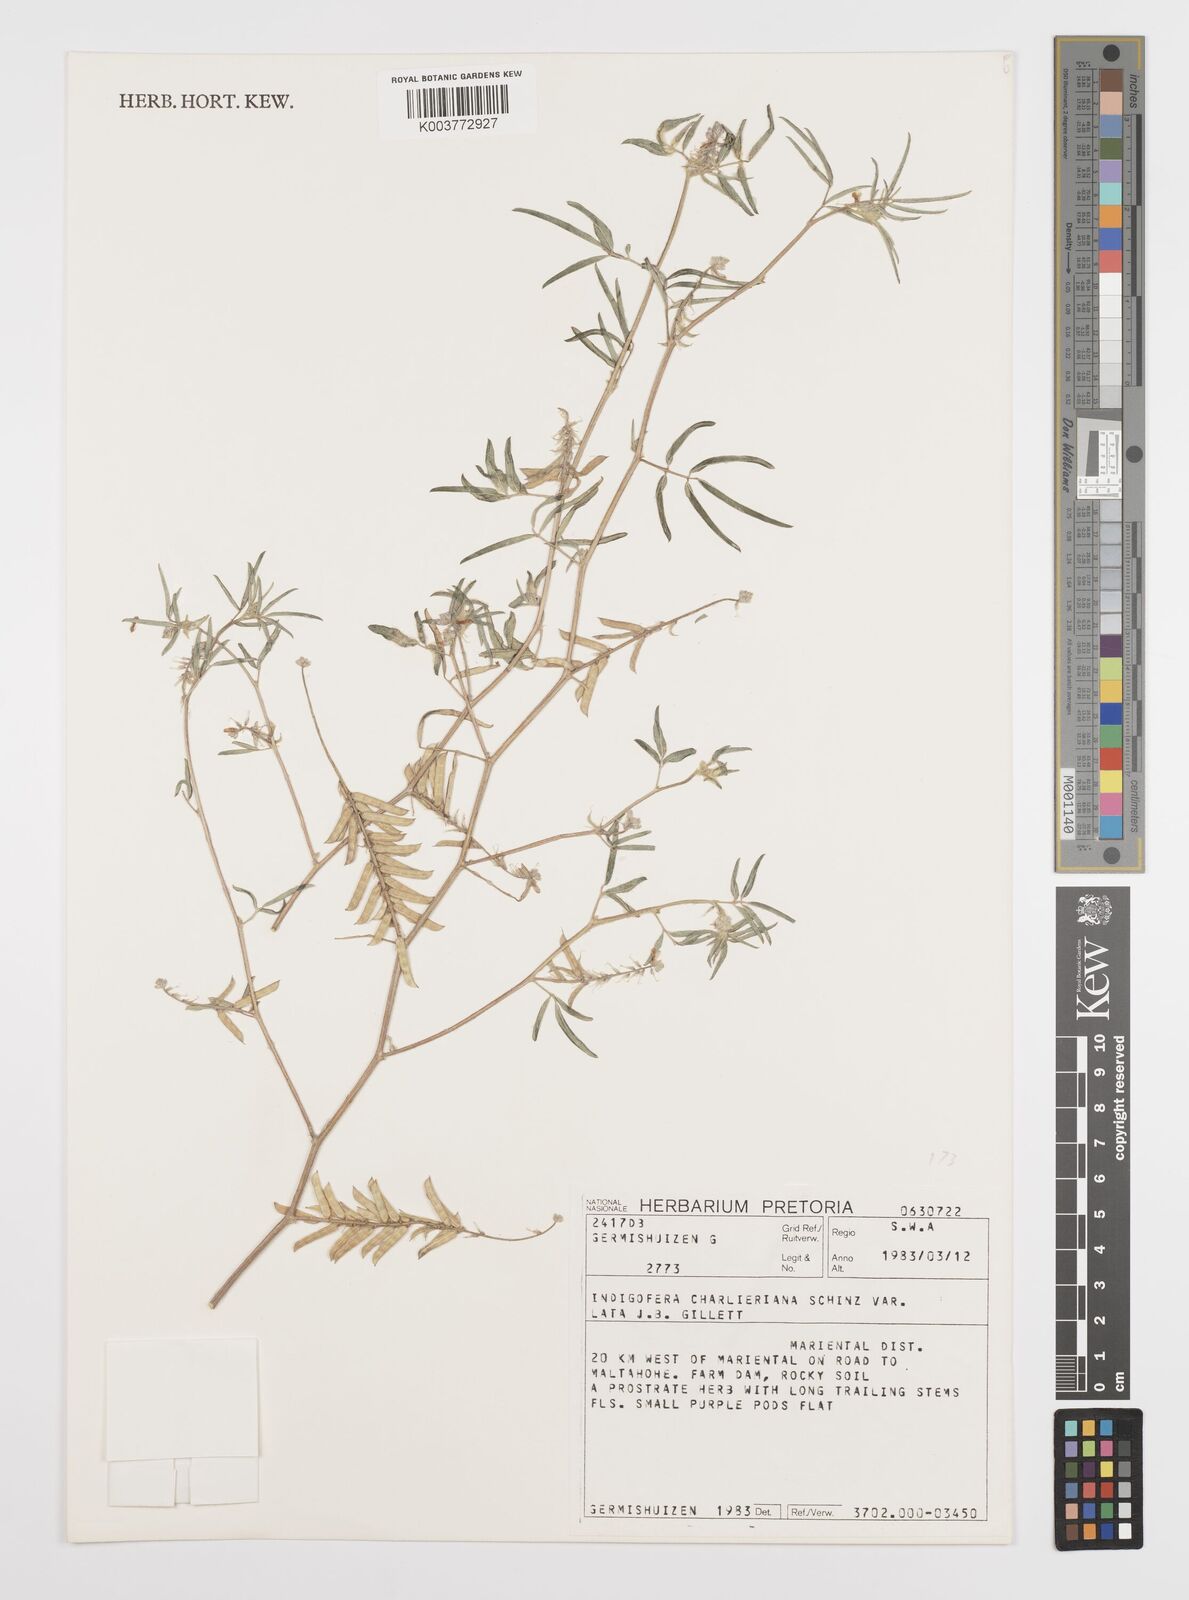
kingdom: Plantae
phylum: Tracheophyta
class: Magnoliopsida
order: Fabales
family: Fabaceae
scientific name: Fabaceae
